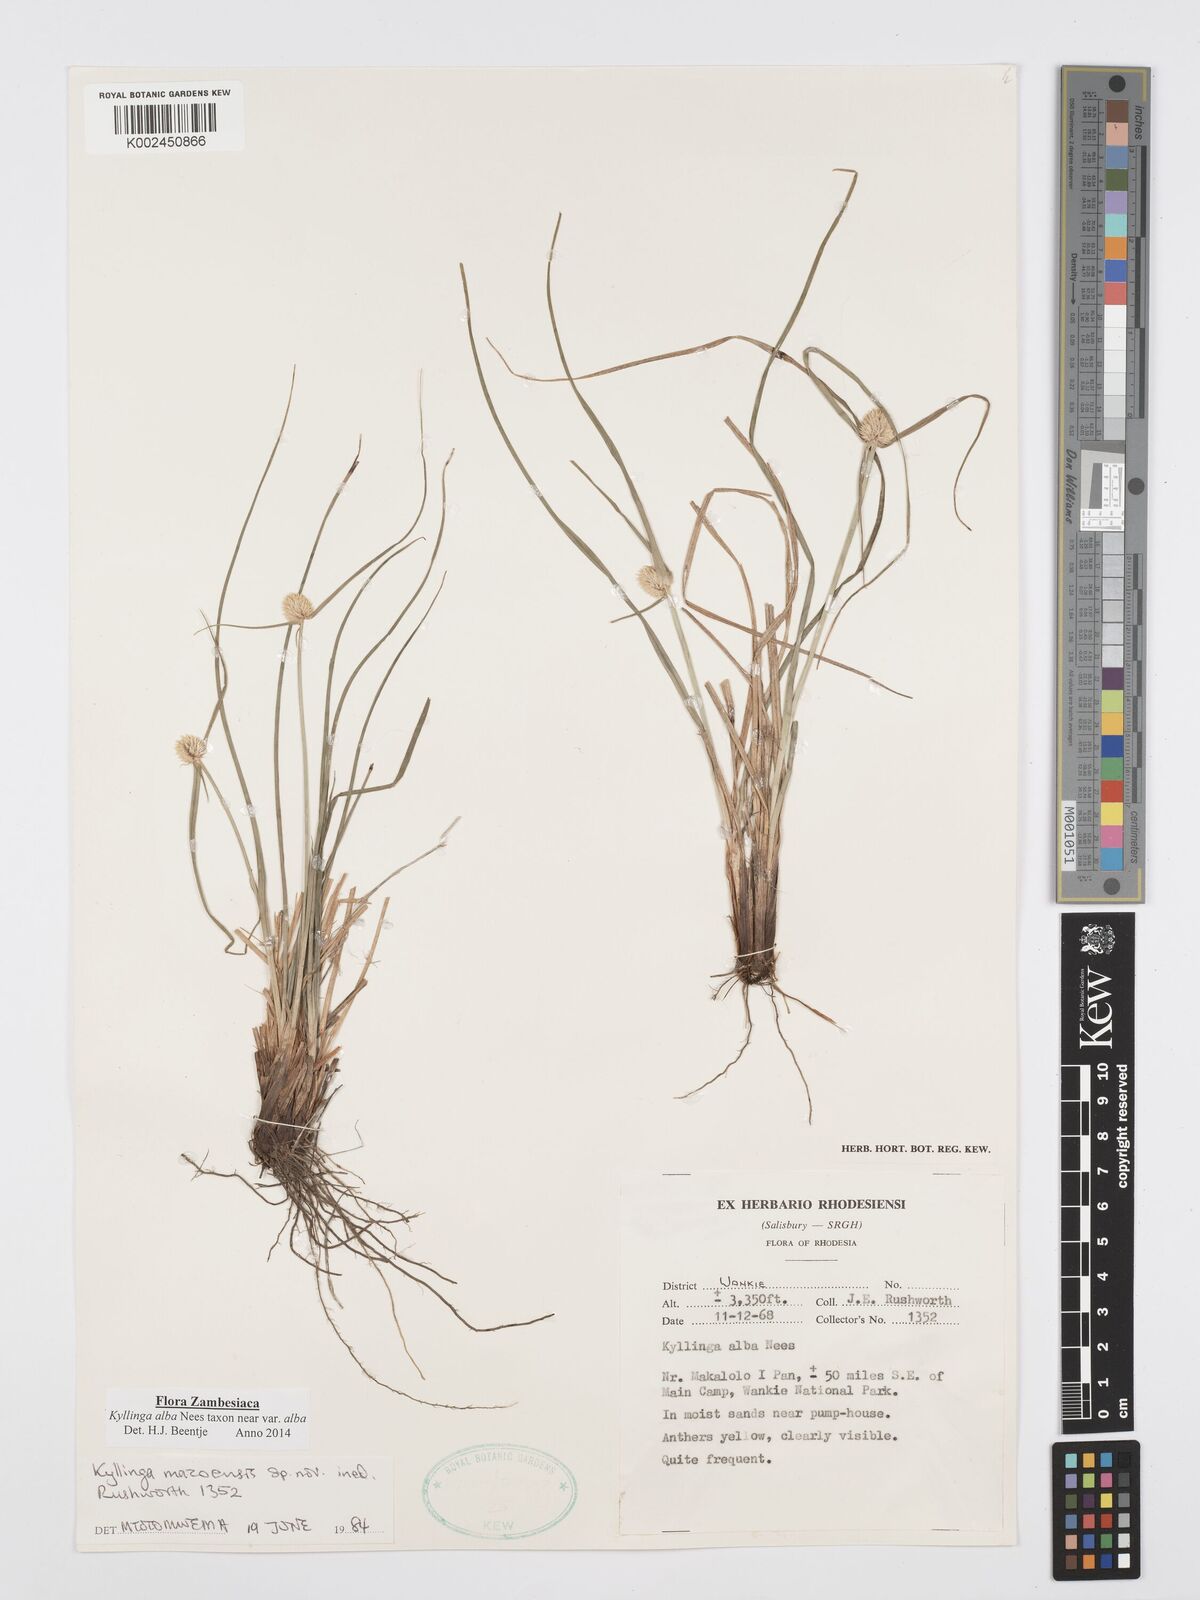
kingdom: Plantae
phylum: Tracheophyta
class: Liliopsida
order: Poales
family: Cyperaceae
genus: Cyperus
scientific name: Cyperus
